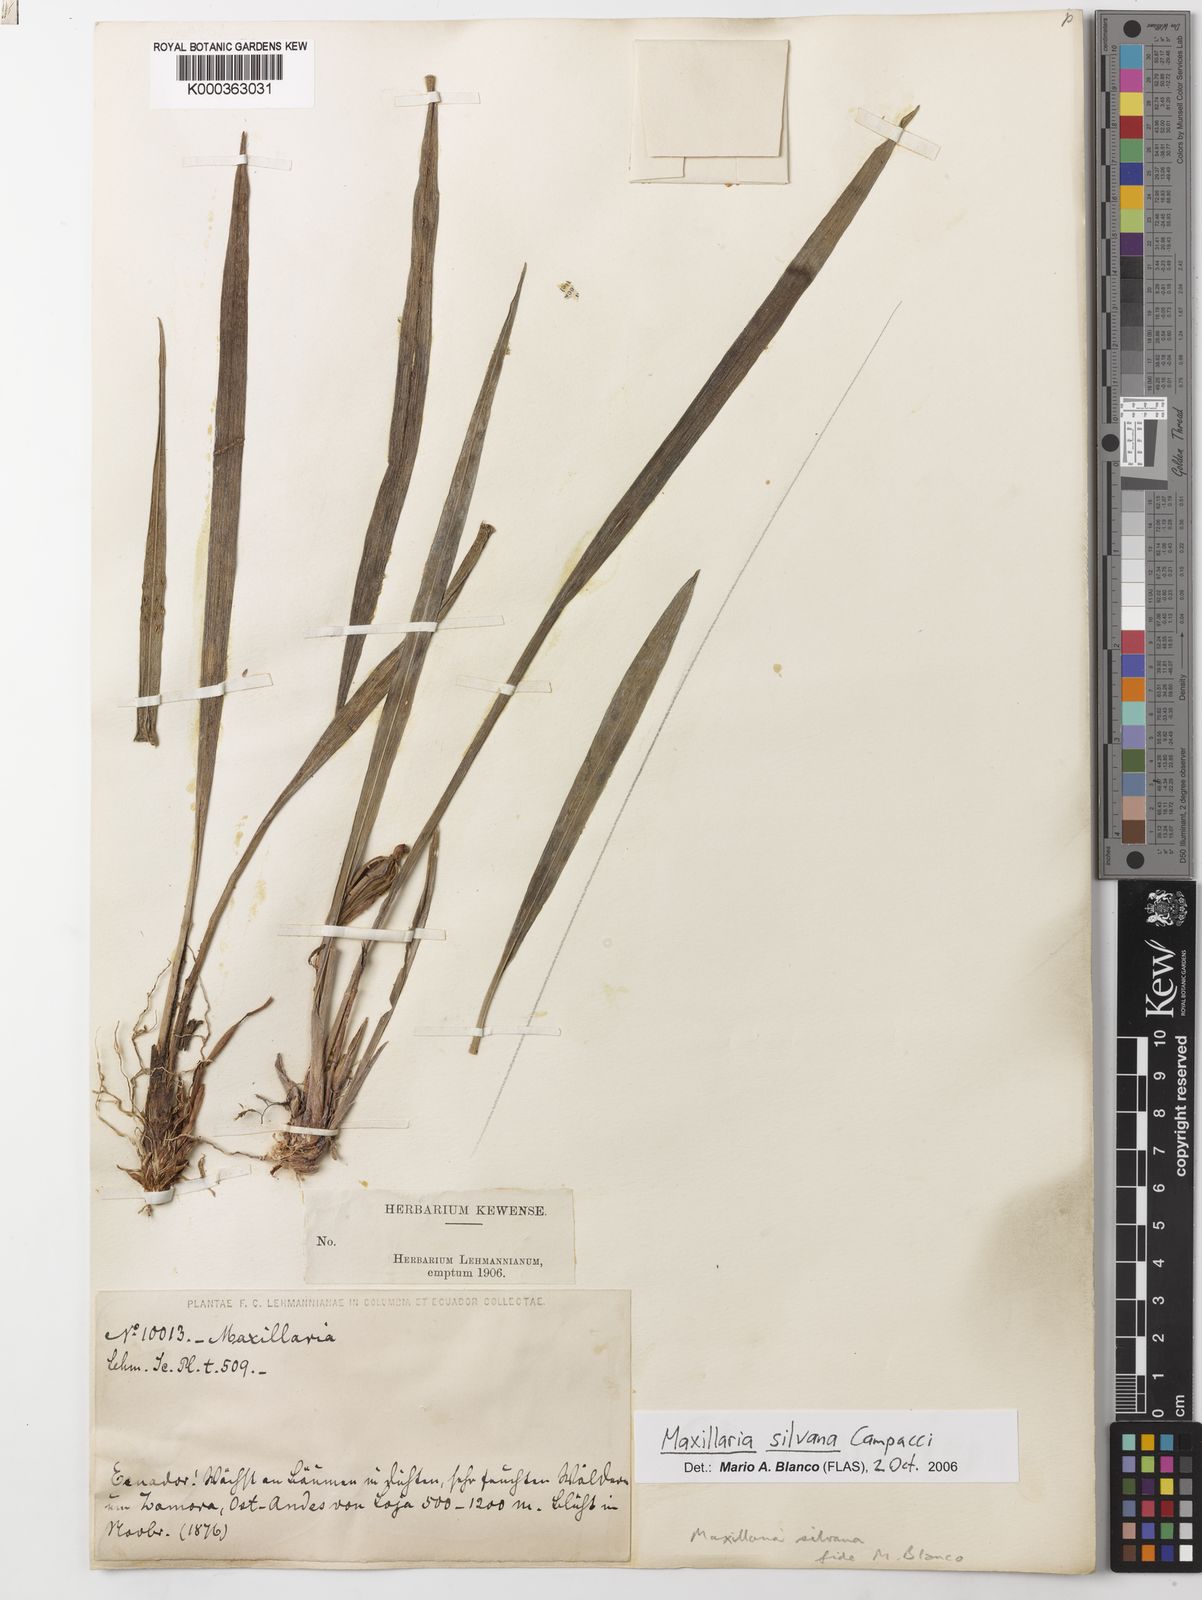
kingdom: Plantae
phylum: Tracheophyta
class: Liliopsida
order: Asparagales
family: Orchidaceae
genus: Maxillaria
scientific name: Maxillaria silvana
